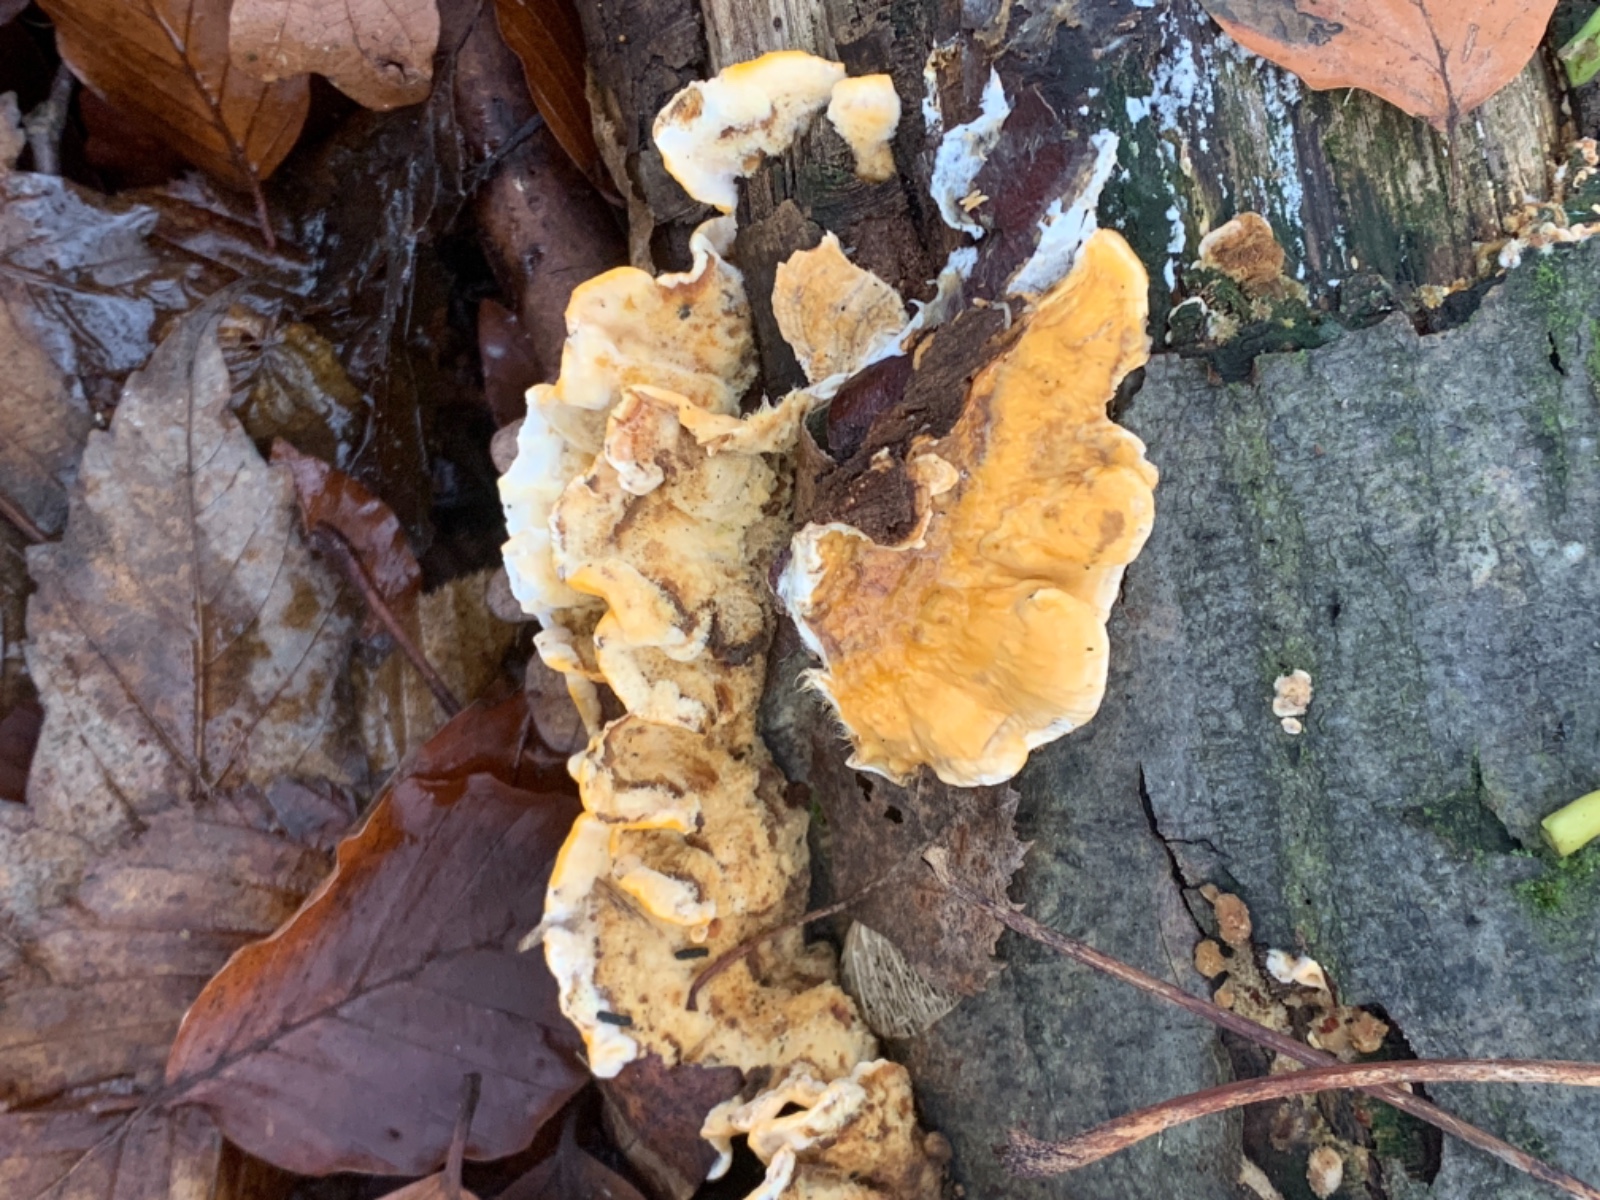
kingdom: Fungi
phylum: Basidiomycota
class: Agaricomycetes
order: Russulales
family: Stereaceae
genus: Stereum
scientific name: Stereum hirsutum
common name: håret lædersvamp
